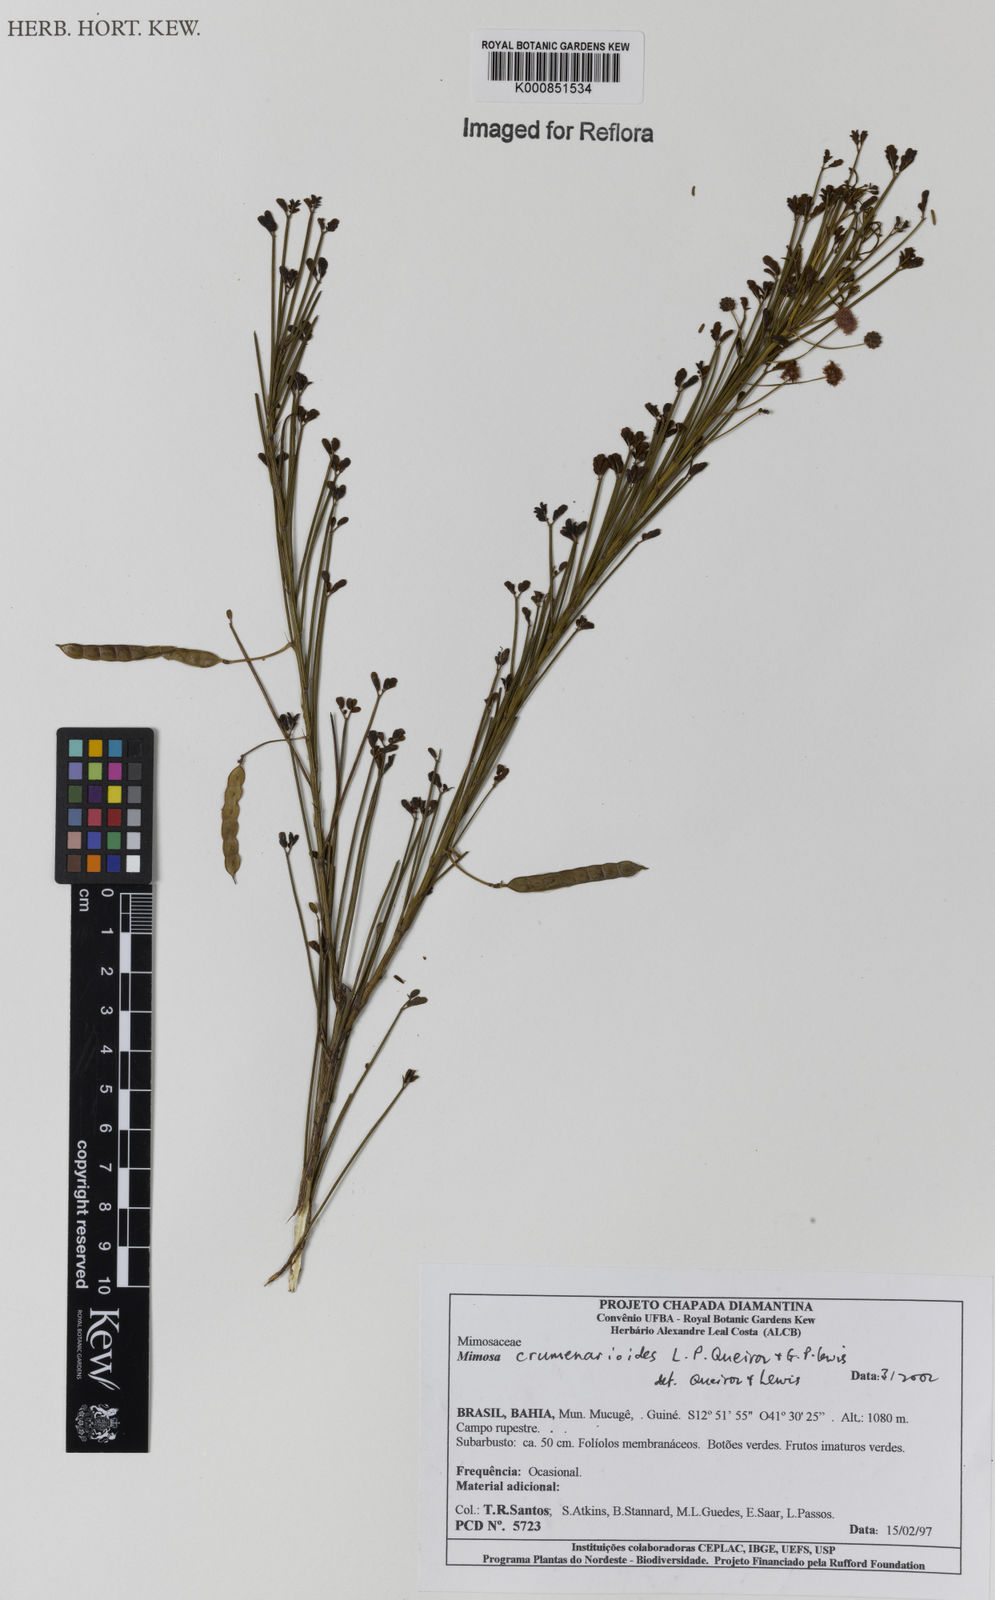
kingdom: Plantae
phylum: Tracheophyta
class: Magnoliopsida
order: Fabales
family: Fabaceae
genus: Mimosa
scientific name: Mimosa crumenarioides
